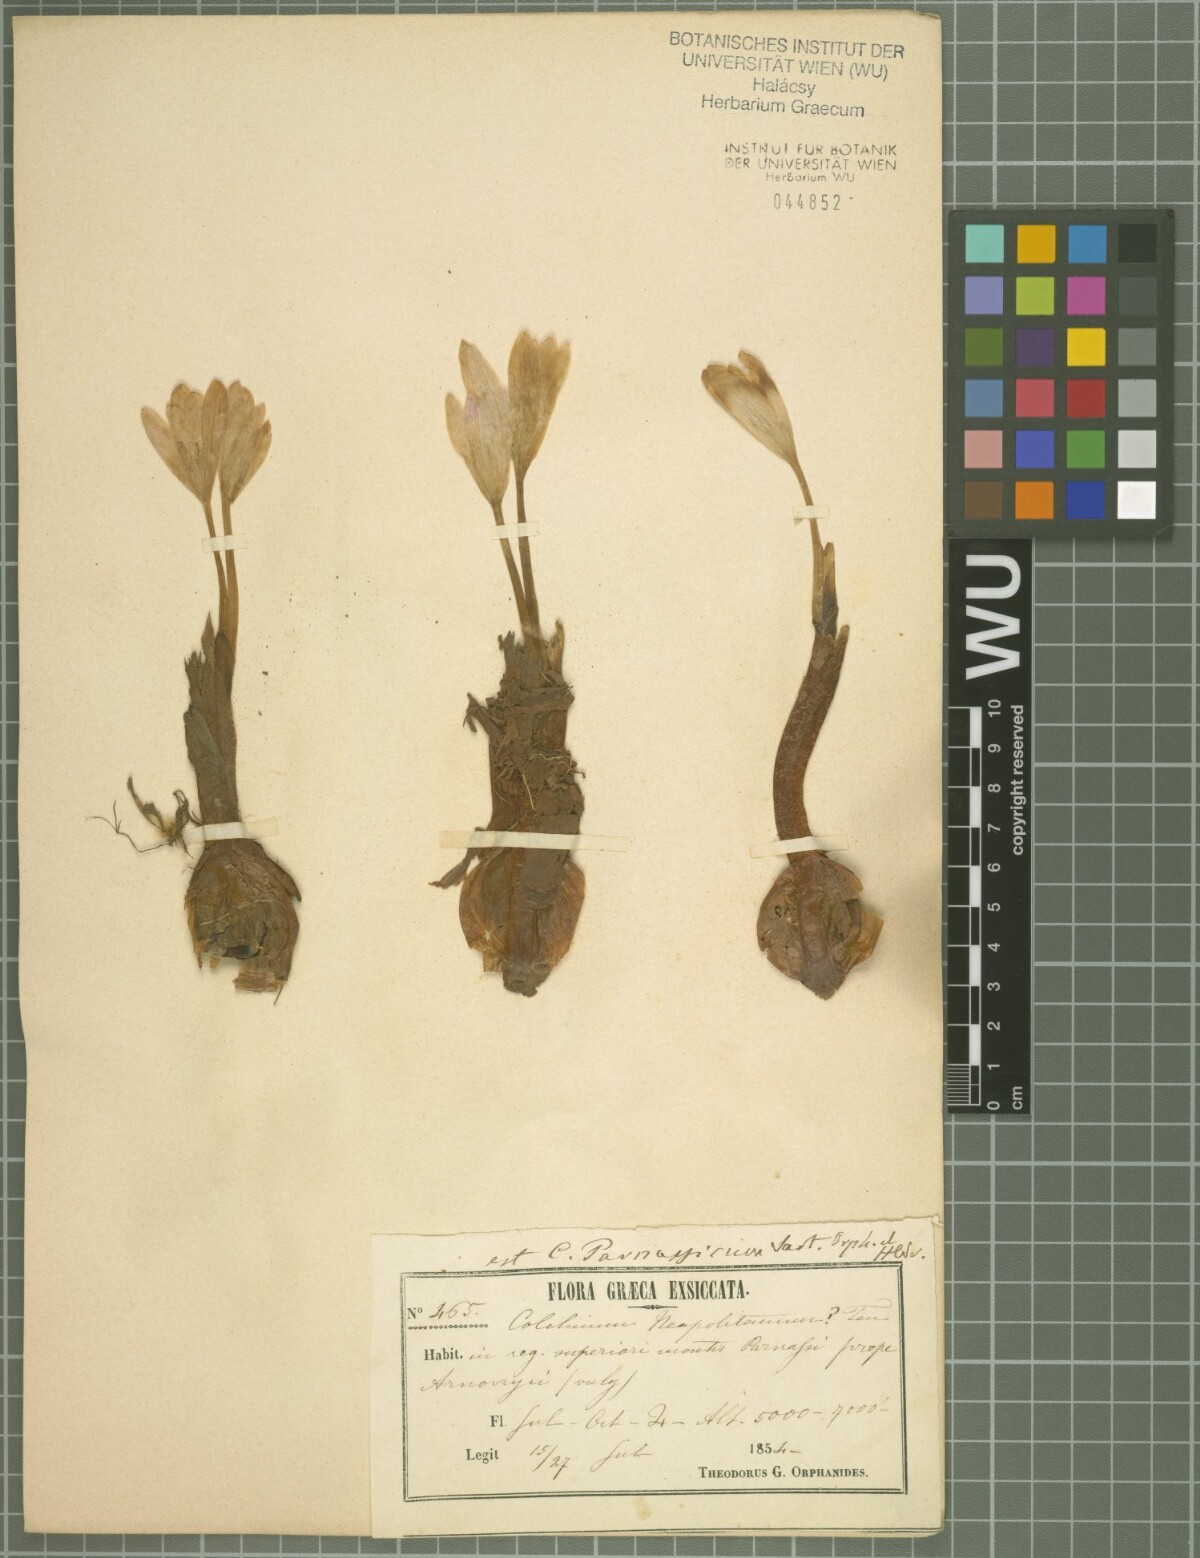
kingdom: Plantae
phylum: Tracheophyta
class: Liliopsida
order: Liliales
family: Colchicaceae
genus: Colchicum
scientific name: Colchicum parnassicum
